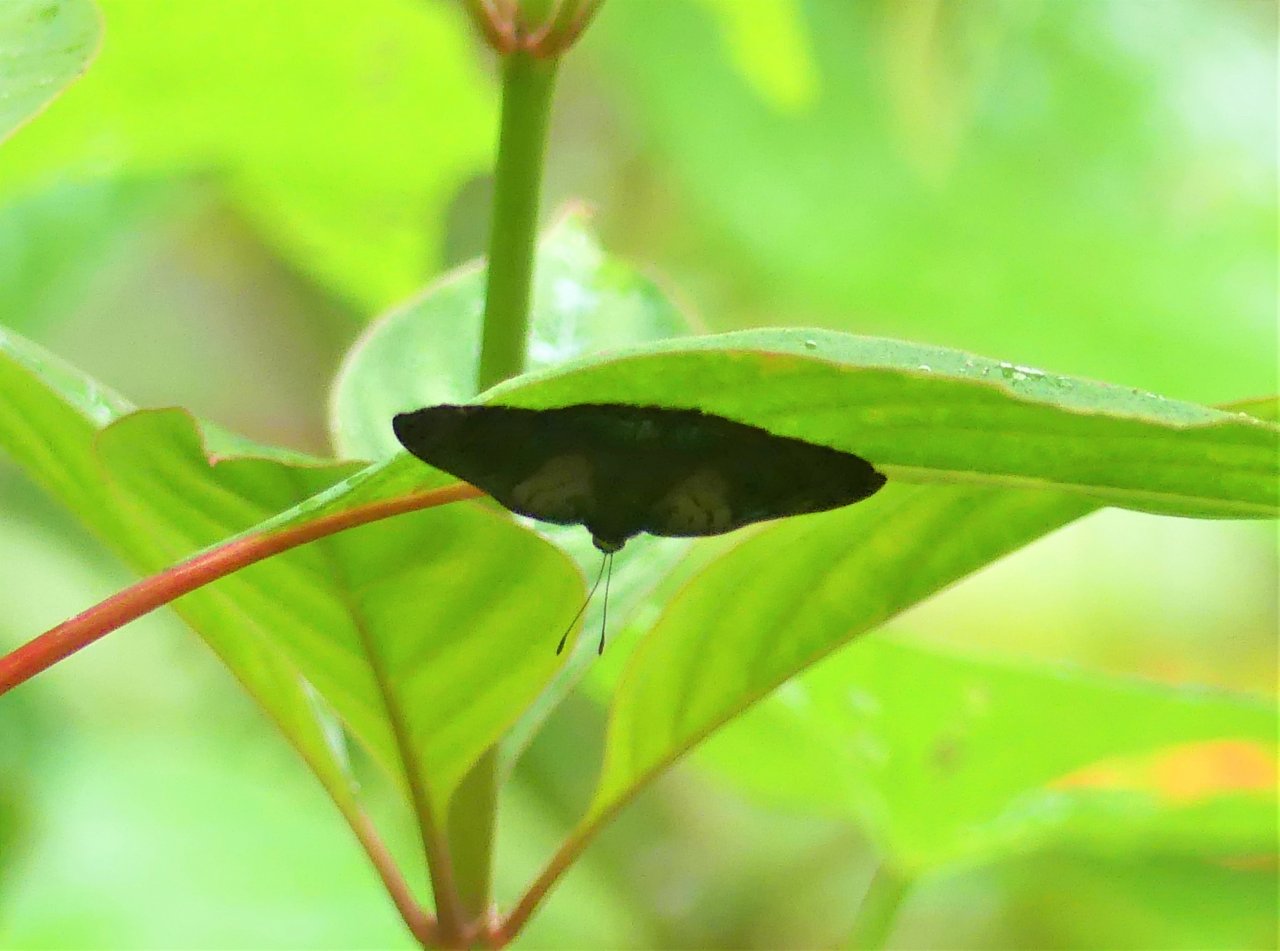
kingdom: Animalia
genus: Caria
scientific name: Caria mantinea
